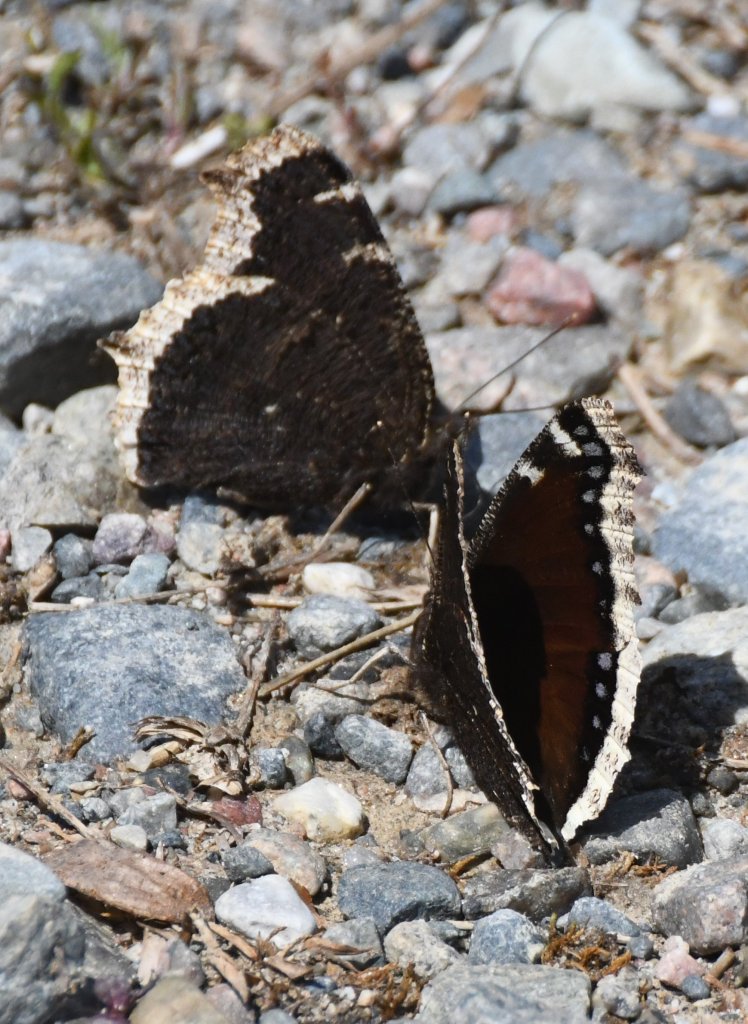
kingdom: Animalia
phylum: Arthropoda
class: Insecta
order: Lepidoptera
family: Nymphalidae
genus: Nymphalis
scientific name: Nymphalis antiopa
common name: Mourning Cloak
